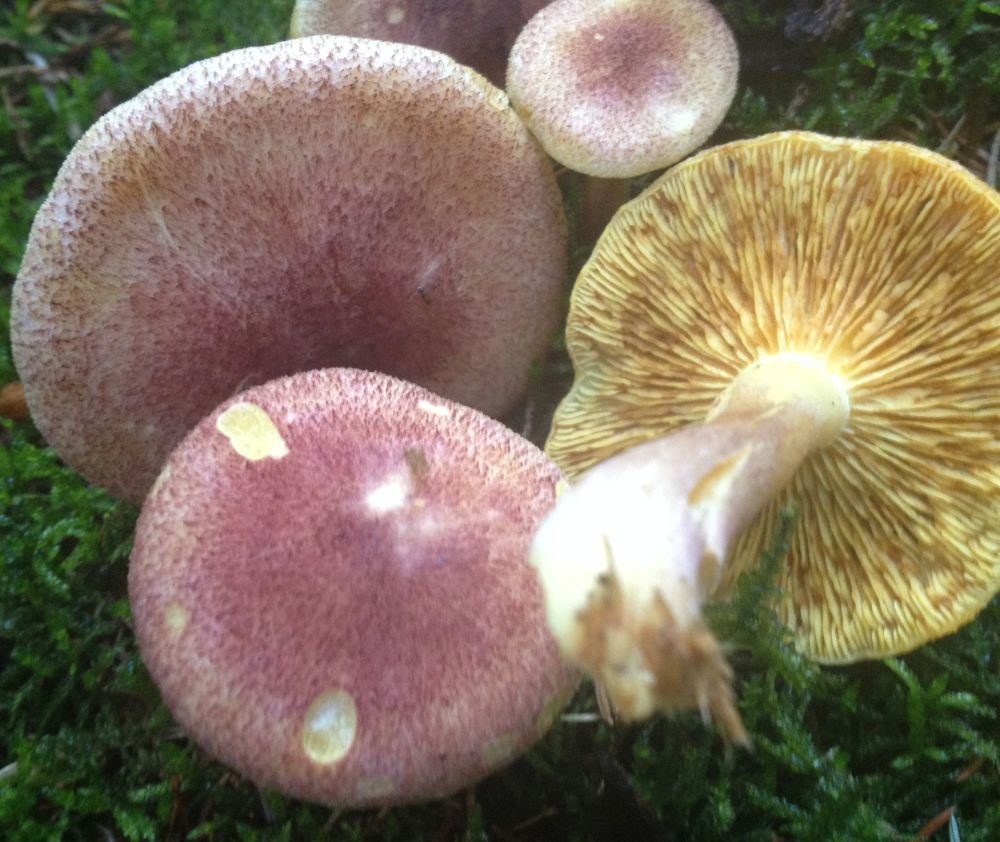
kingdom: Fungi
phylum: Basidiomycota
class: Agaricomycetes
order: Agaricales
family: Tricholomataceae
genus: Tricholomopsis
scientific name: Tricholomopsis rutilans
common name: purpur-væbnerhat
